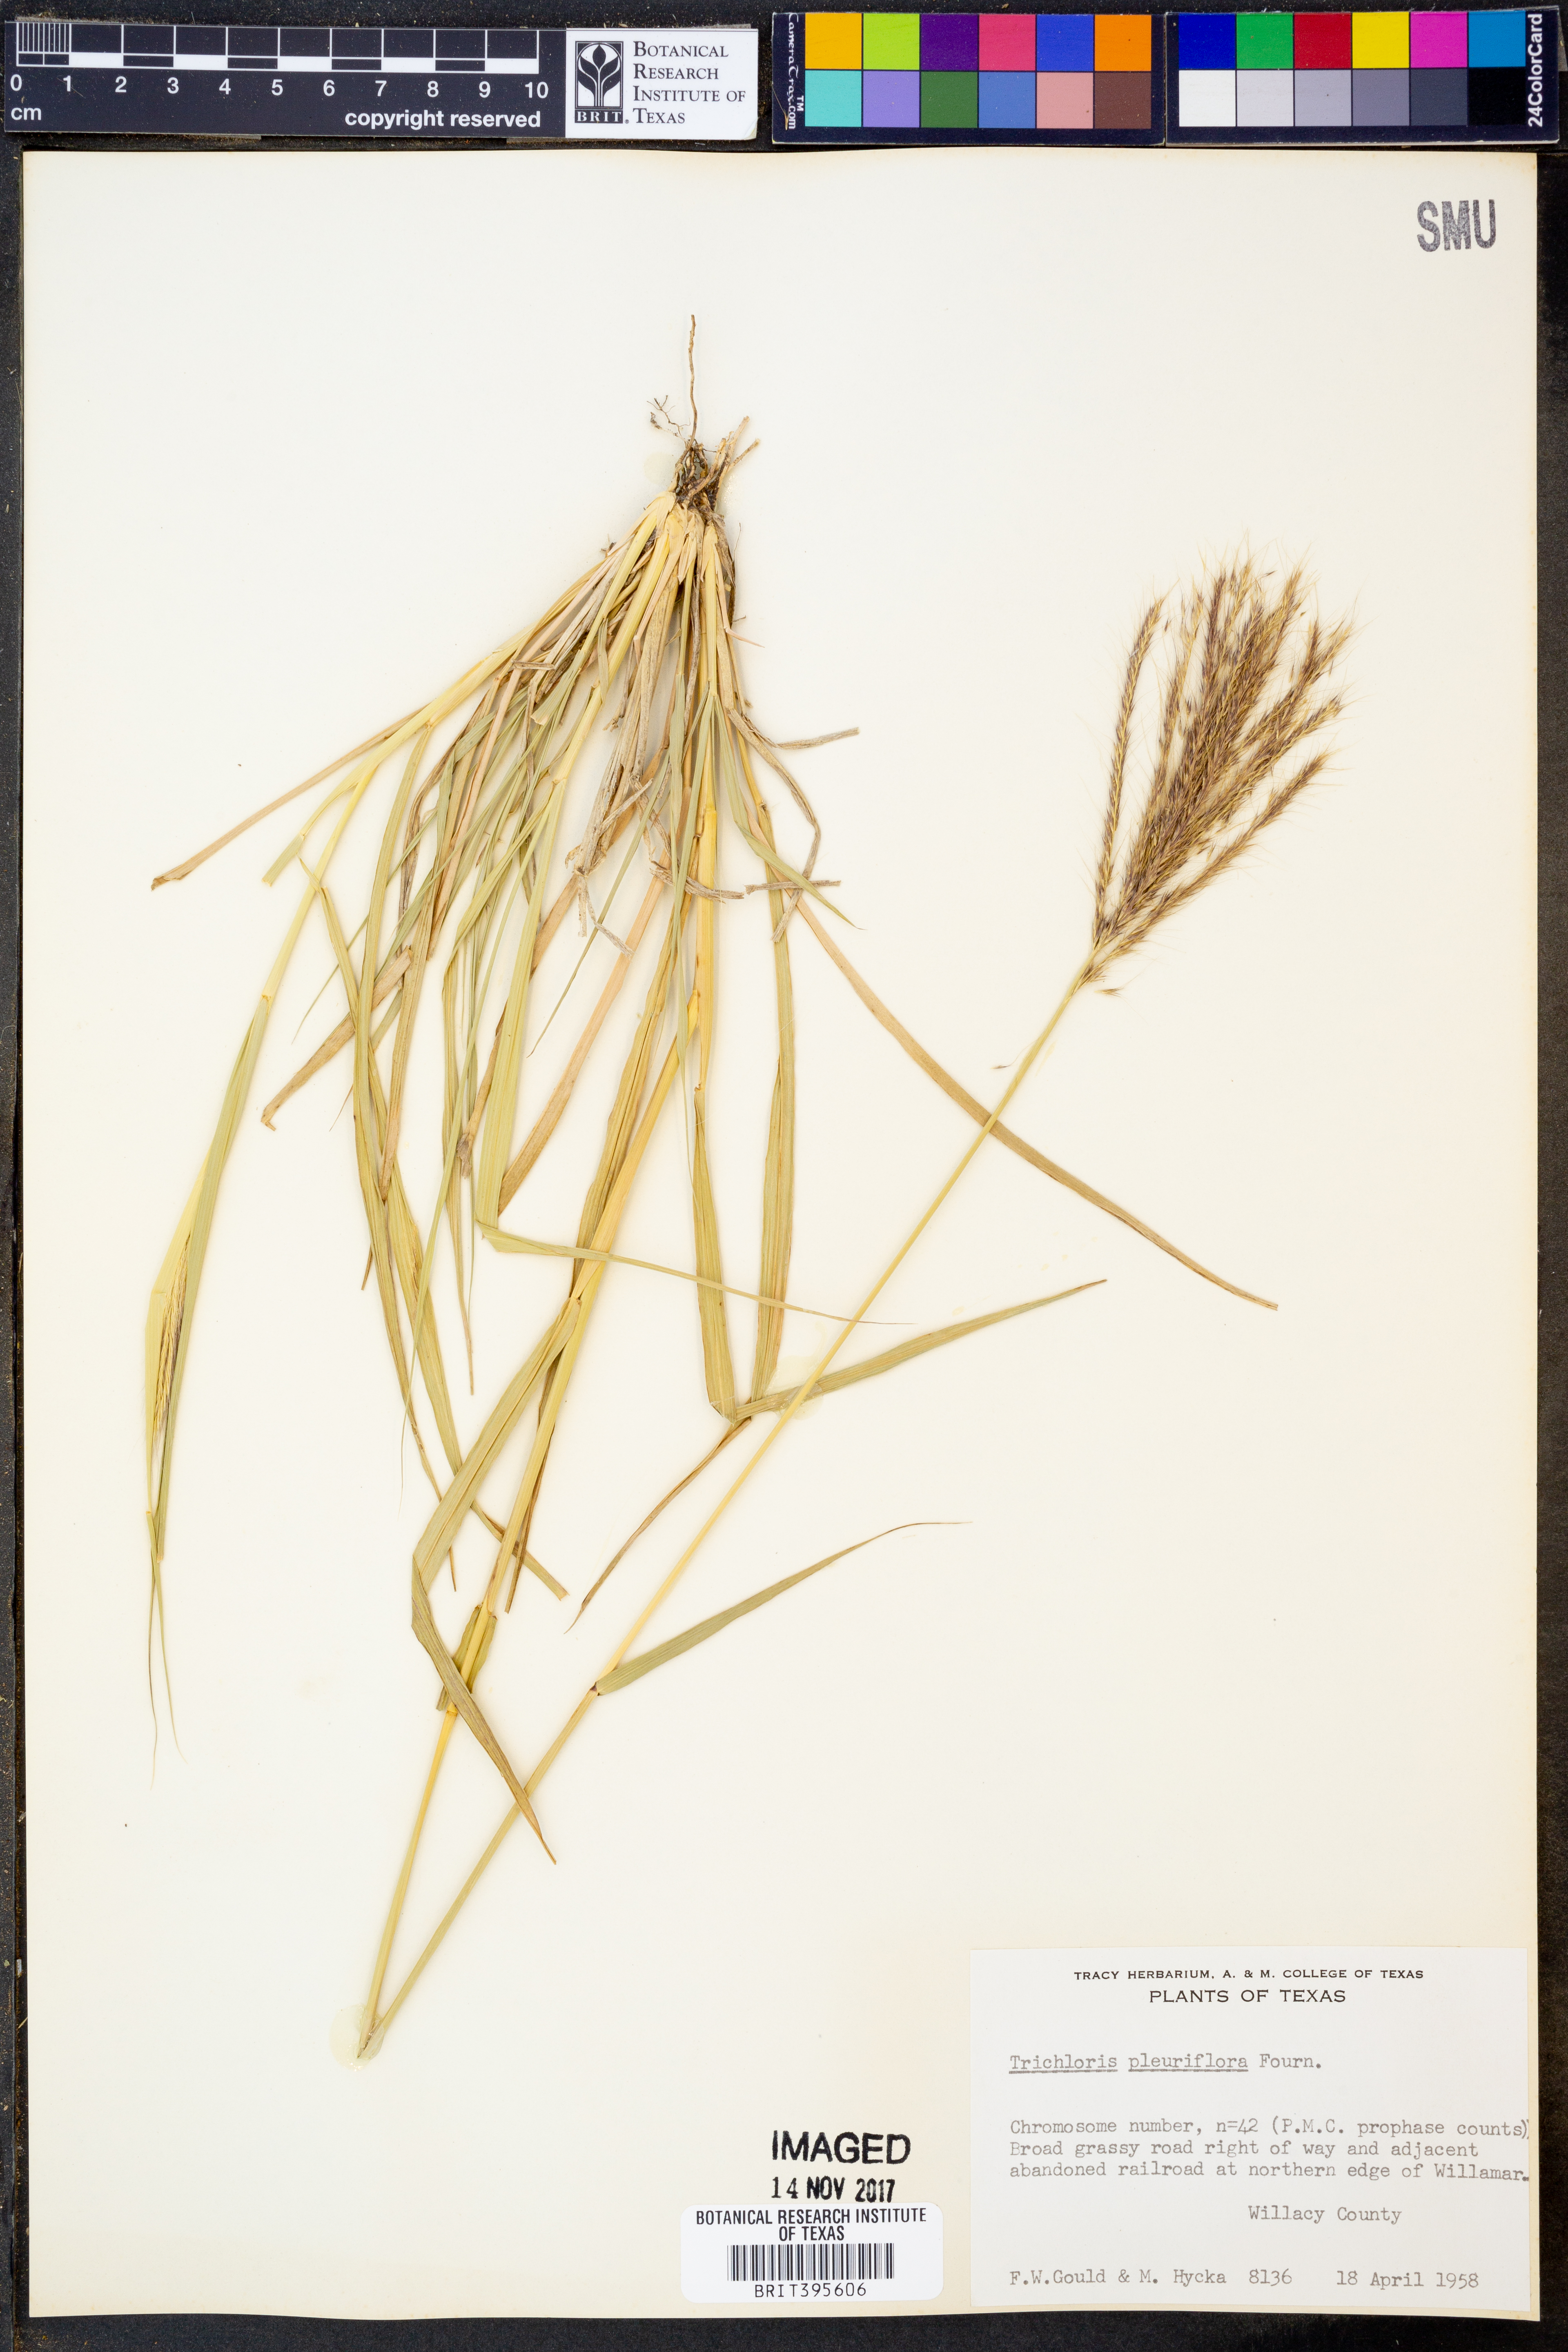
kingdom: Plantae
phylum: Tracheophyta
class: Liliopsida
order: Poales
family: Poaceae
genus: Leptochloa
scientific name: Leptochloa pluriflora
